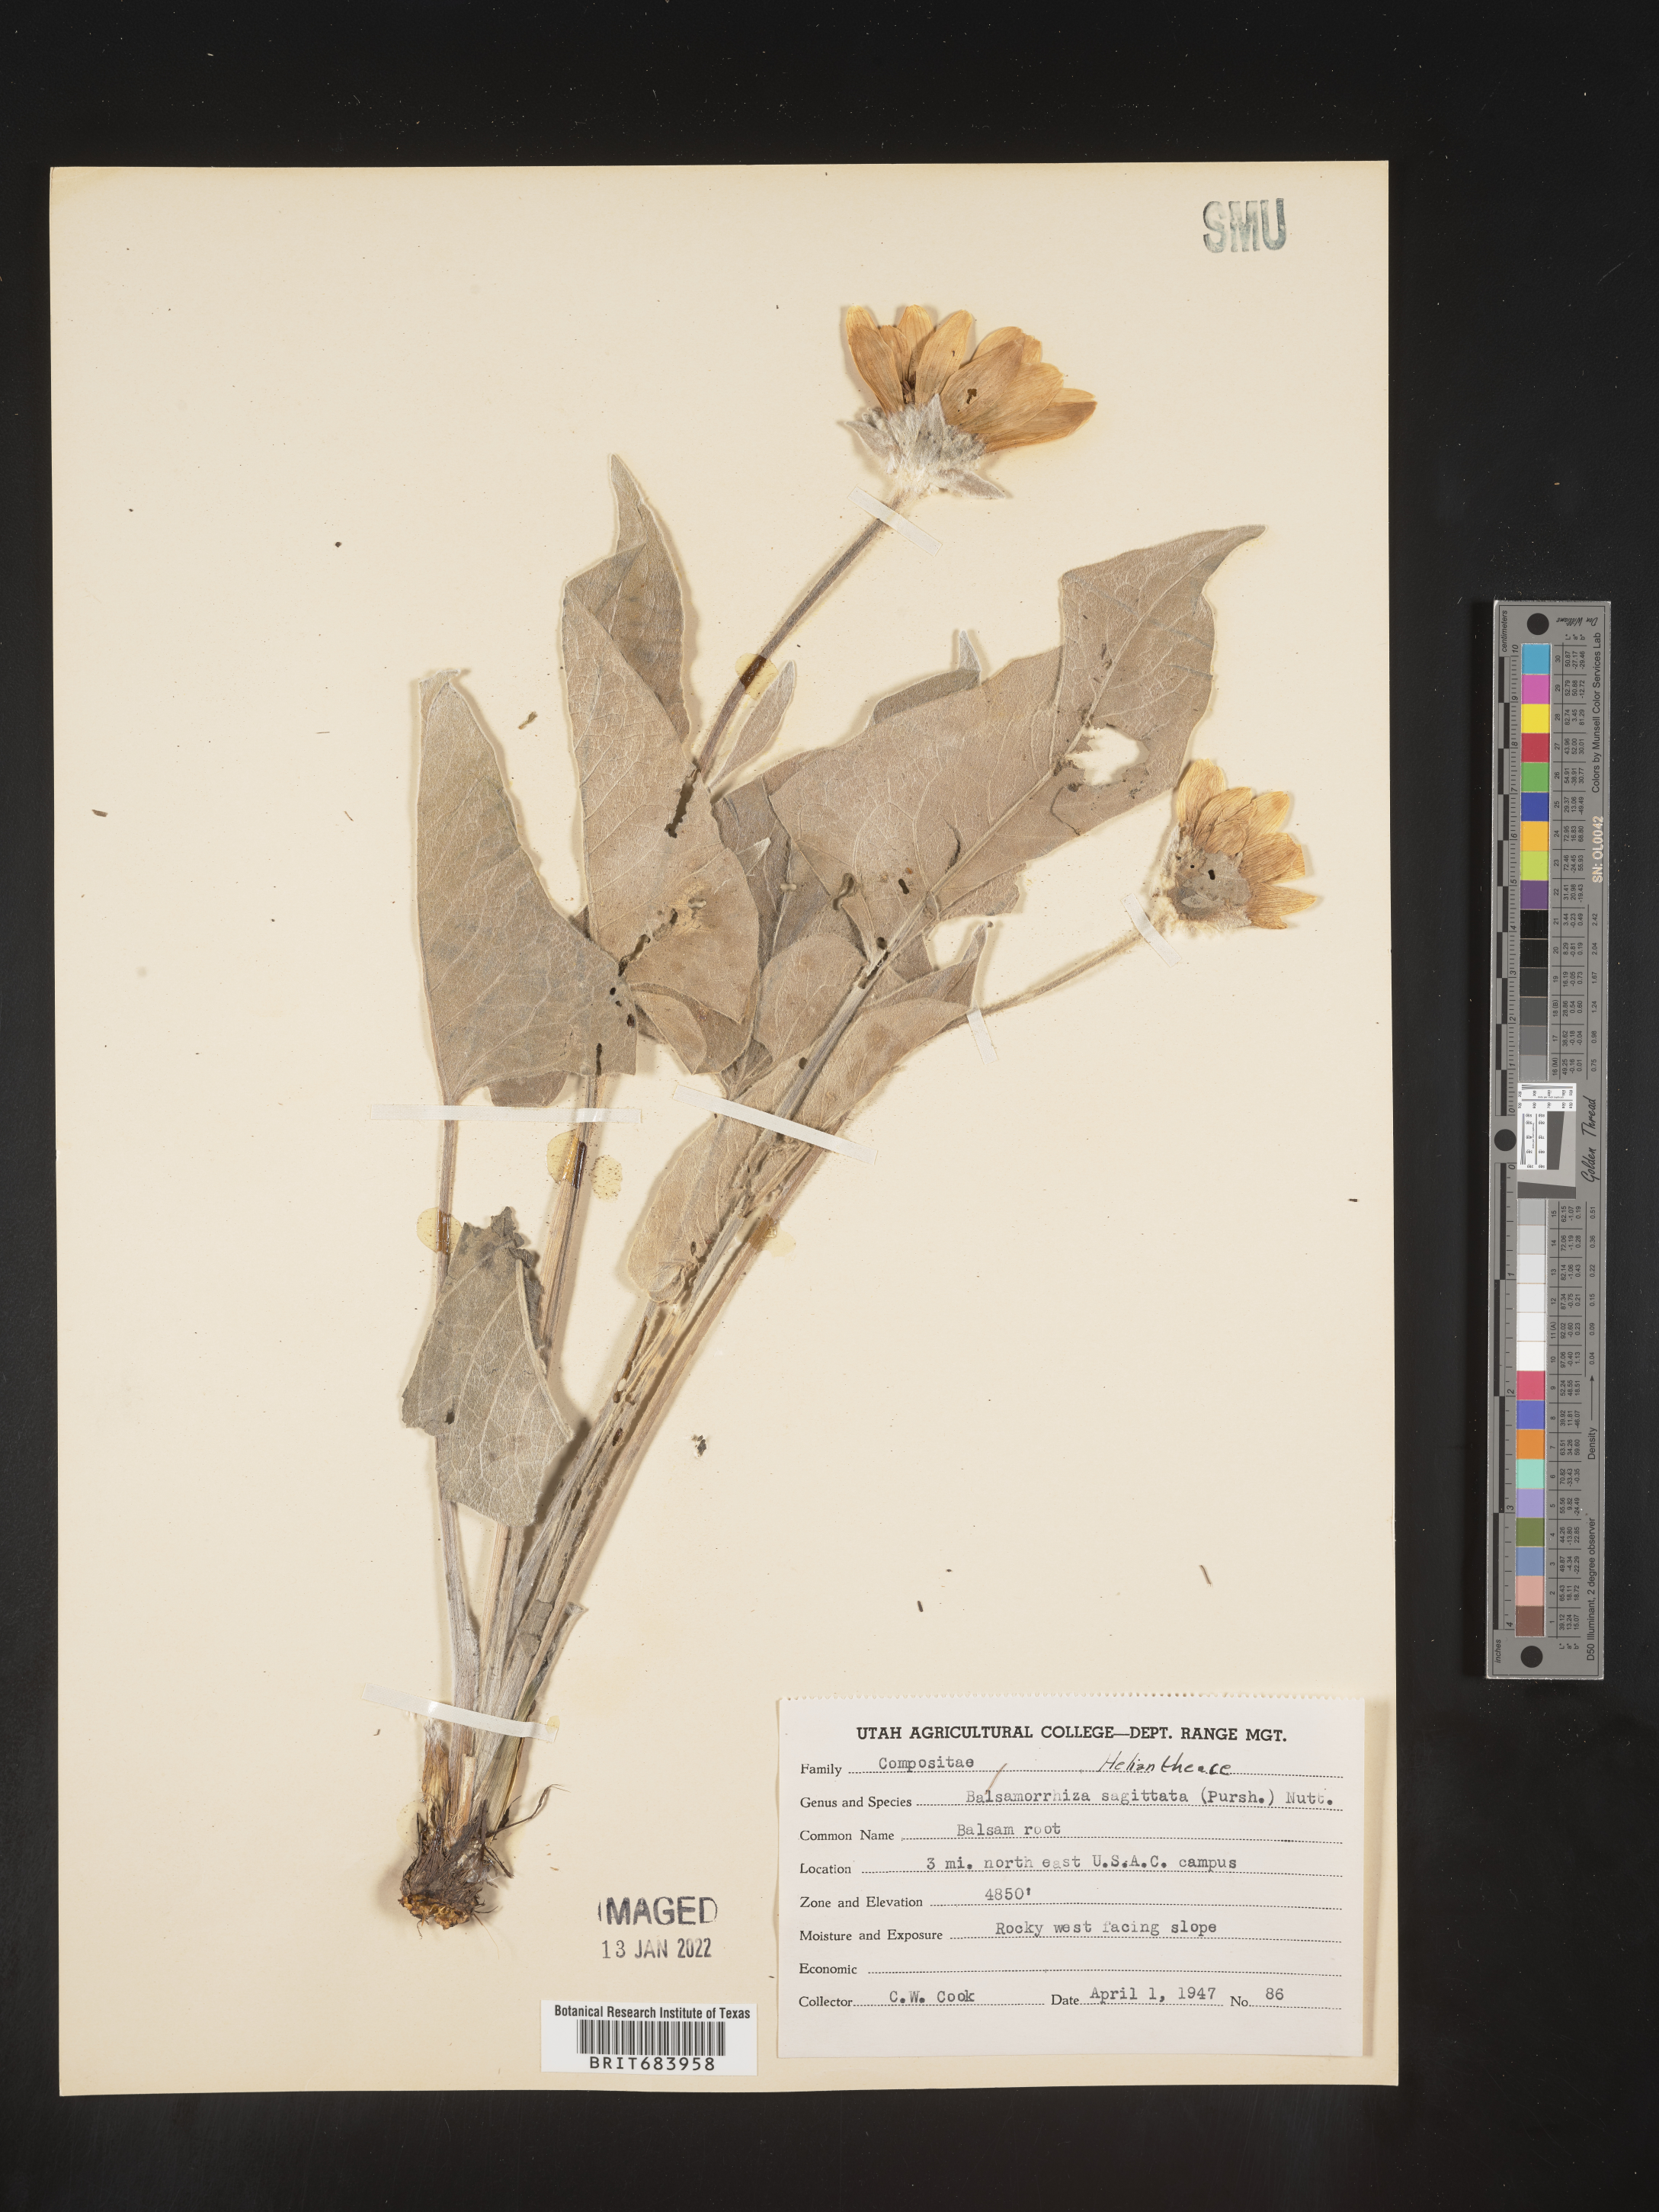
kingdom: Plantae
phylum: Tracheophyta
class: Magnoliopsida
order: Asterales
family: Asteraceae
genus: Wyethia
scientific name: Wyethia sagittata
